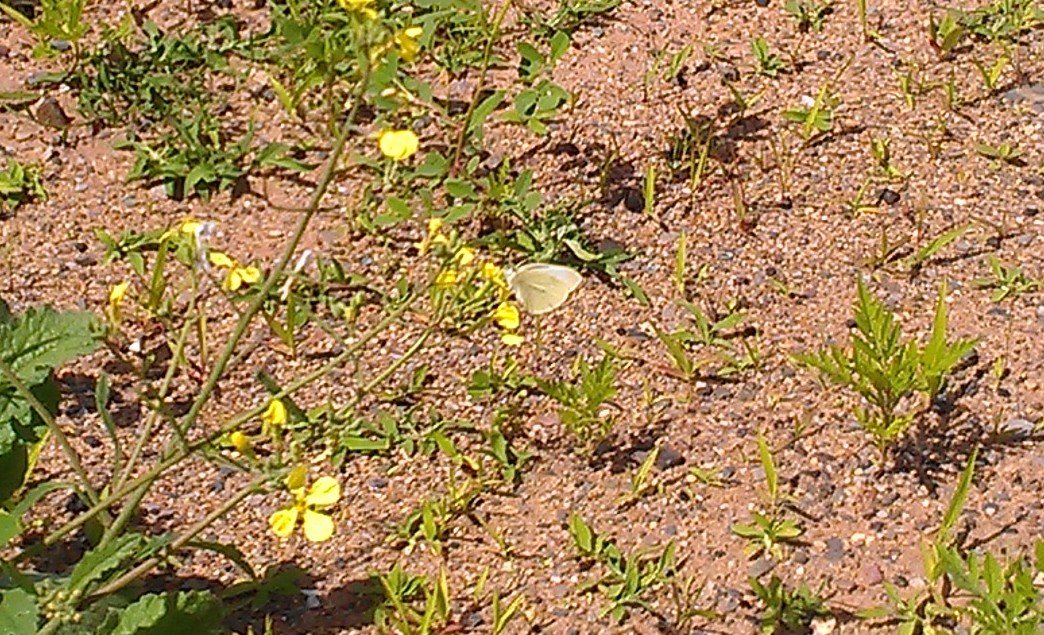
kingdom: Animalia
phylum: Arthropoda
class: Insecta
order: Lepidoptera
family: Pieridae
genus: Pieris
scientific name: Pieris rapae
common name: Cabbage White
